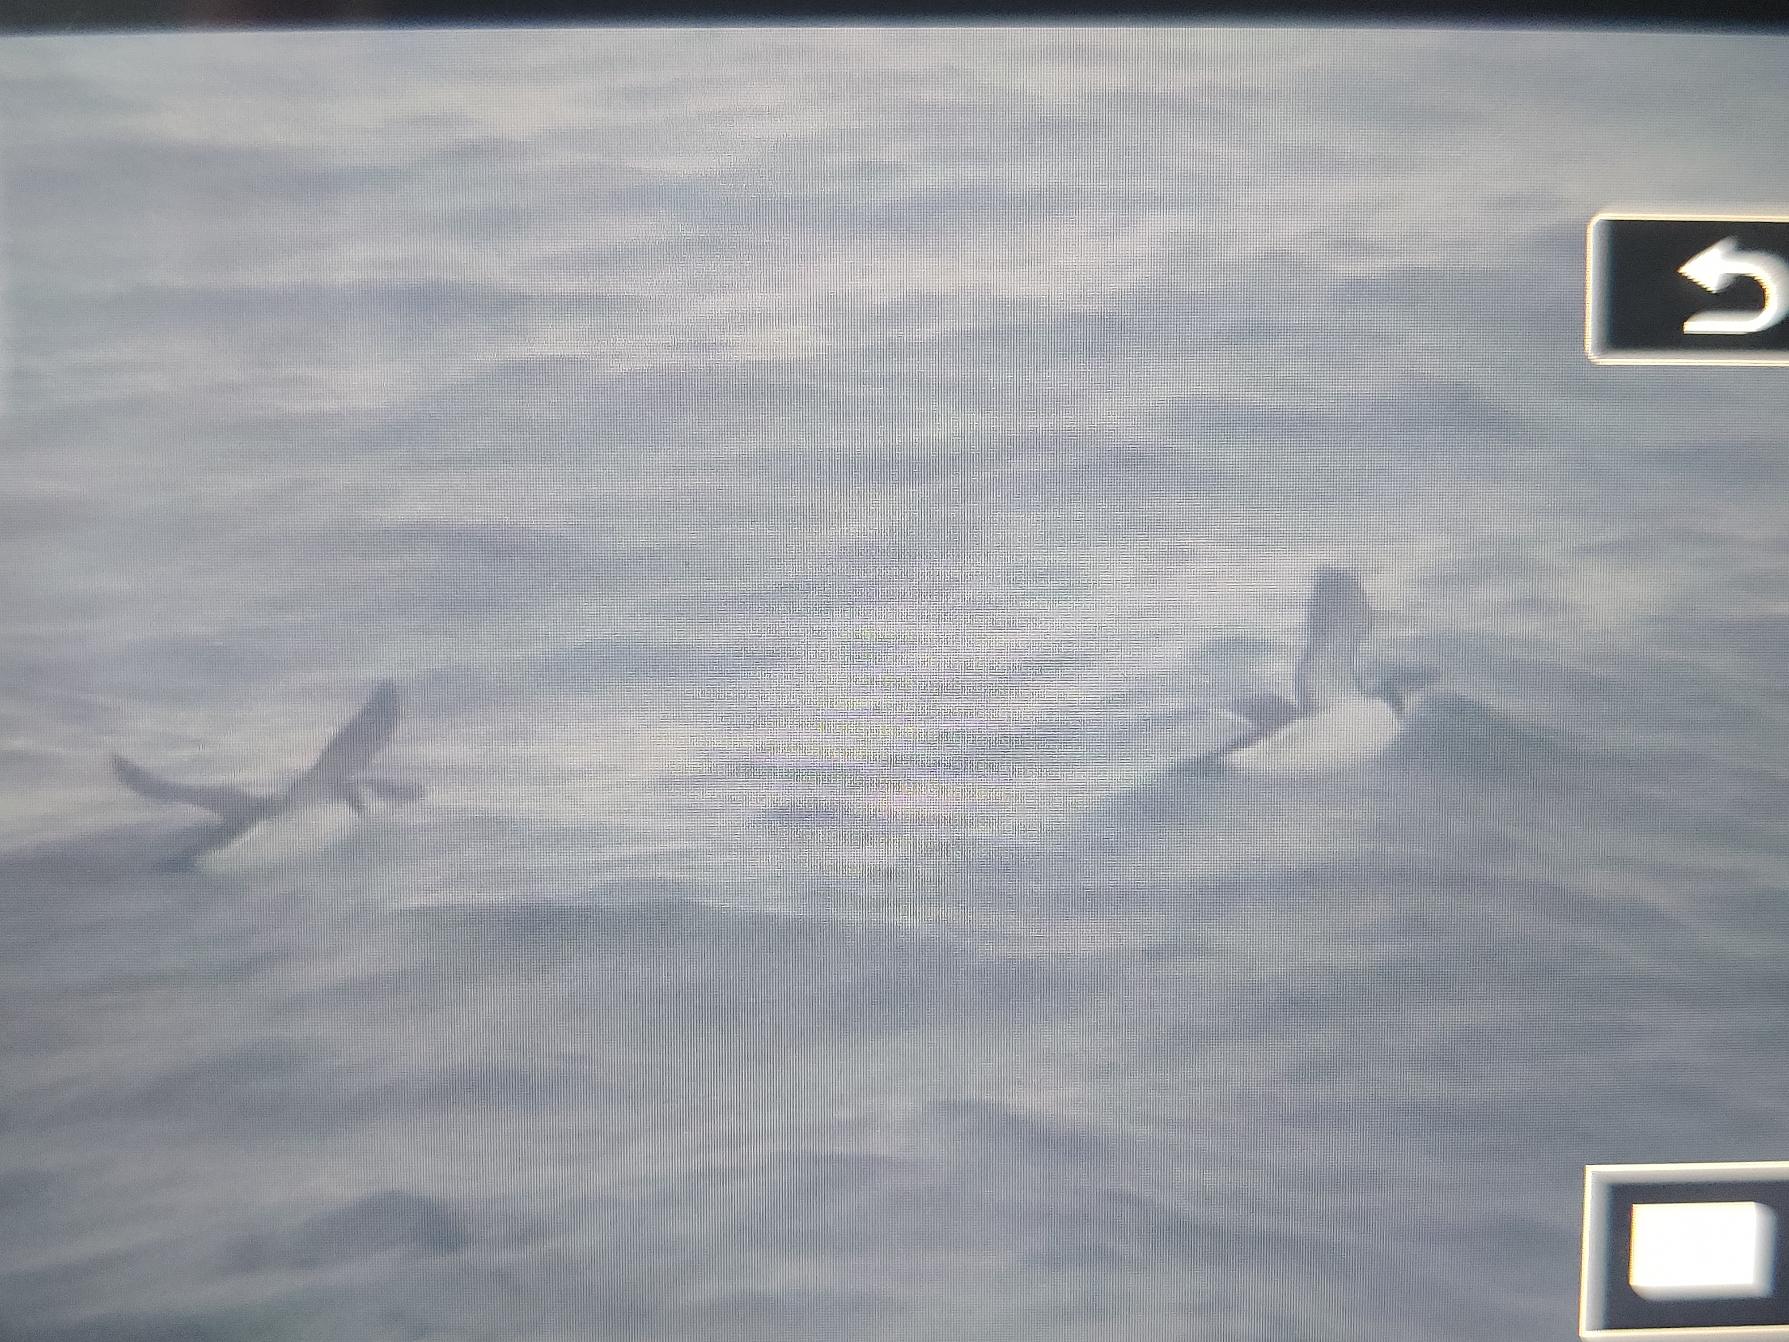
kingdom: Animalia
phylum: Chordata
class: Aves
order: Charadriiformes
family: Alcidae
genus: Alca
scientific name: Alca torda
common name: Alk
